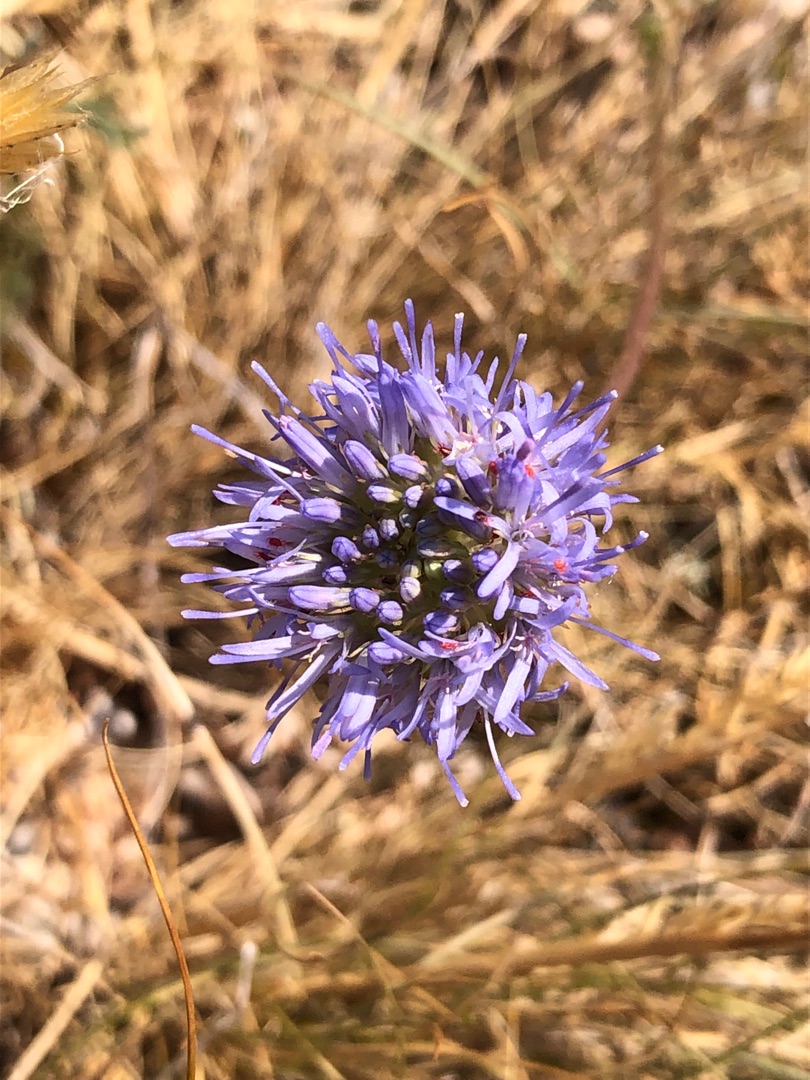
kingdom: Plantae
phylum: Tracheophyta
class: Magnoliopsida
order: Asterales
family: Campanulaceae
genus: Jasione
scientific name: Jasione montana
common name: Blåmunke
